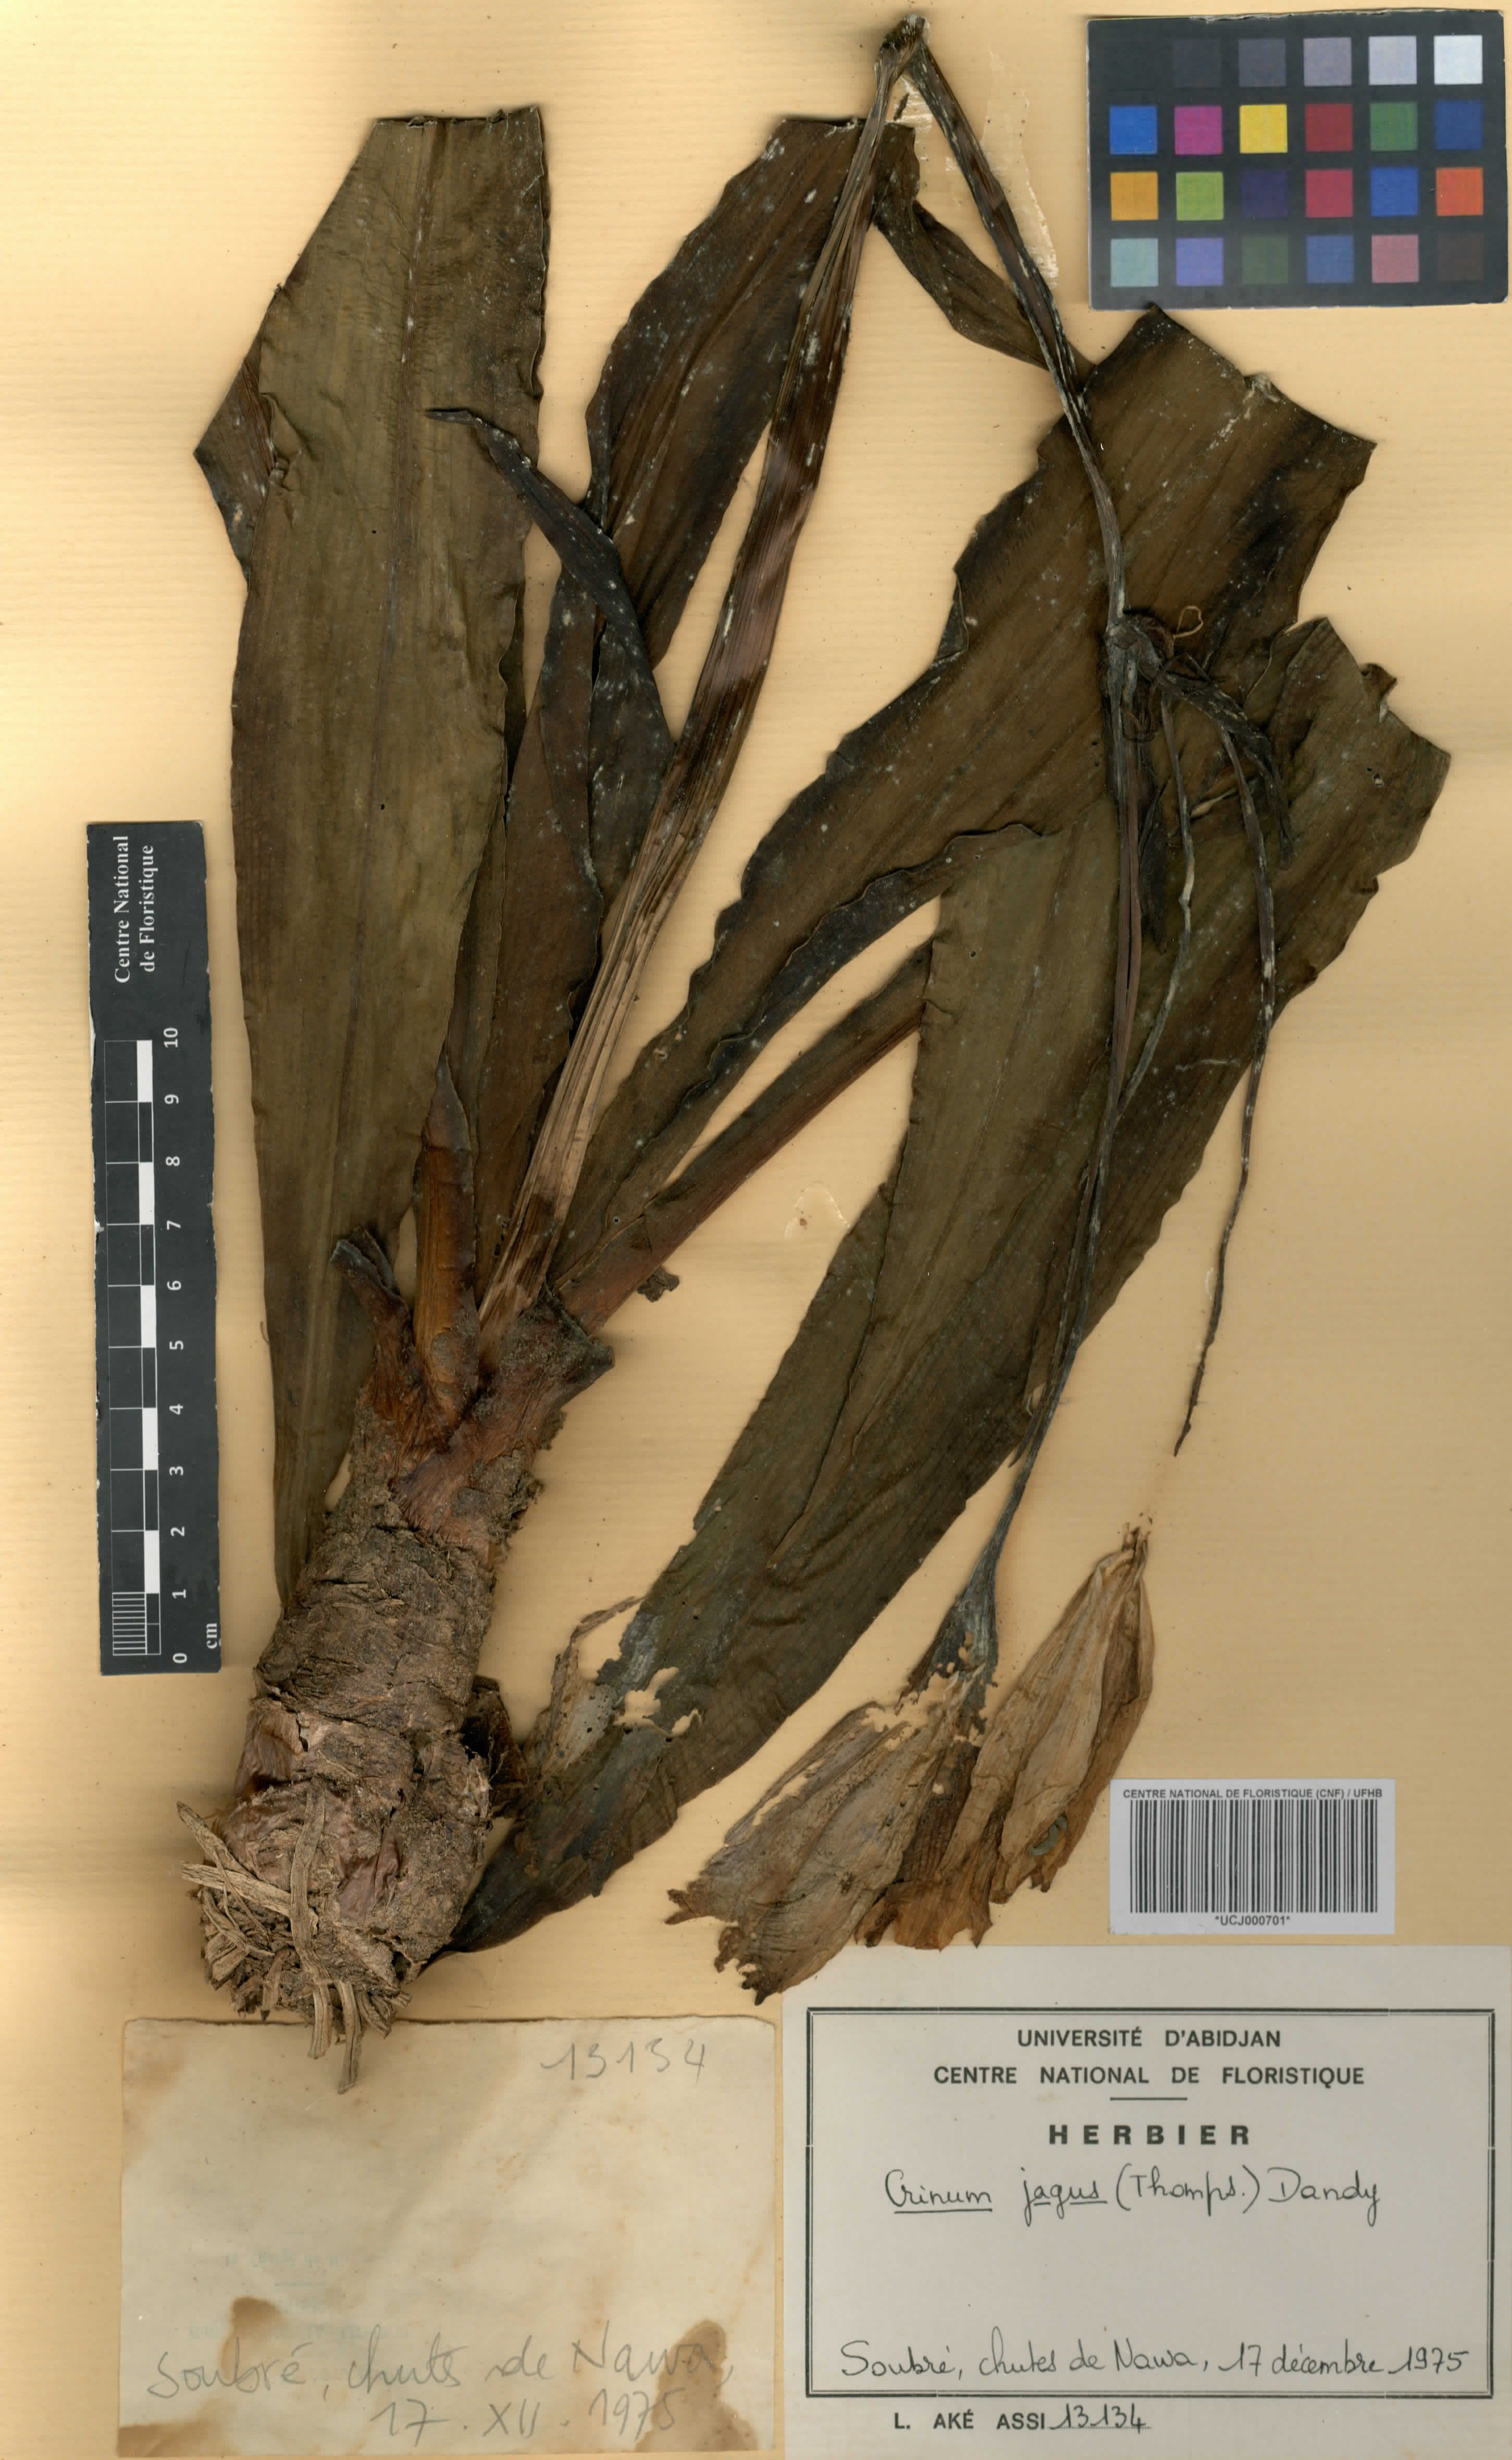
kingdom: Plantae
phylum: Tracheophyta
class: Liliopsida
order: Asparagales
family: Amaryllidaceae
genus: Crinum
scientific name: Crinum jagus
